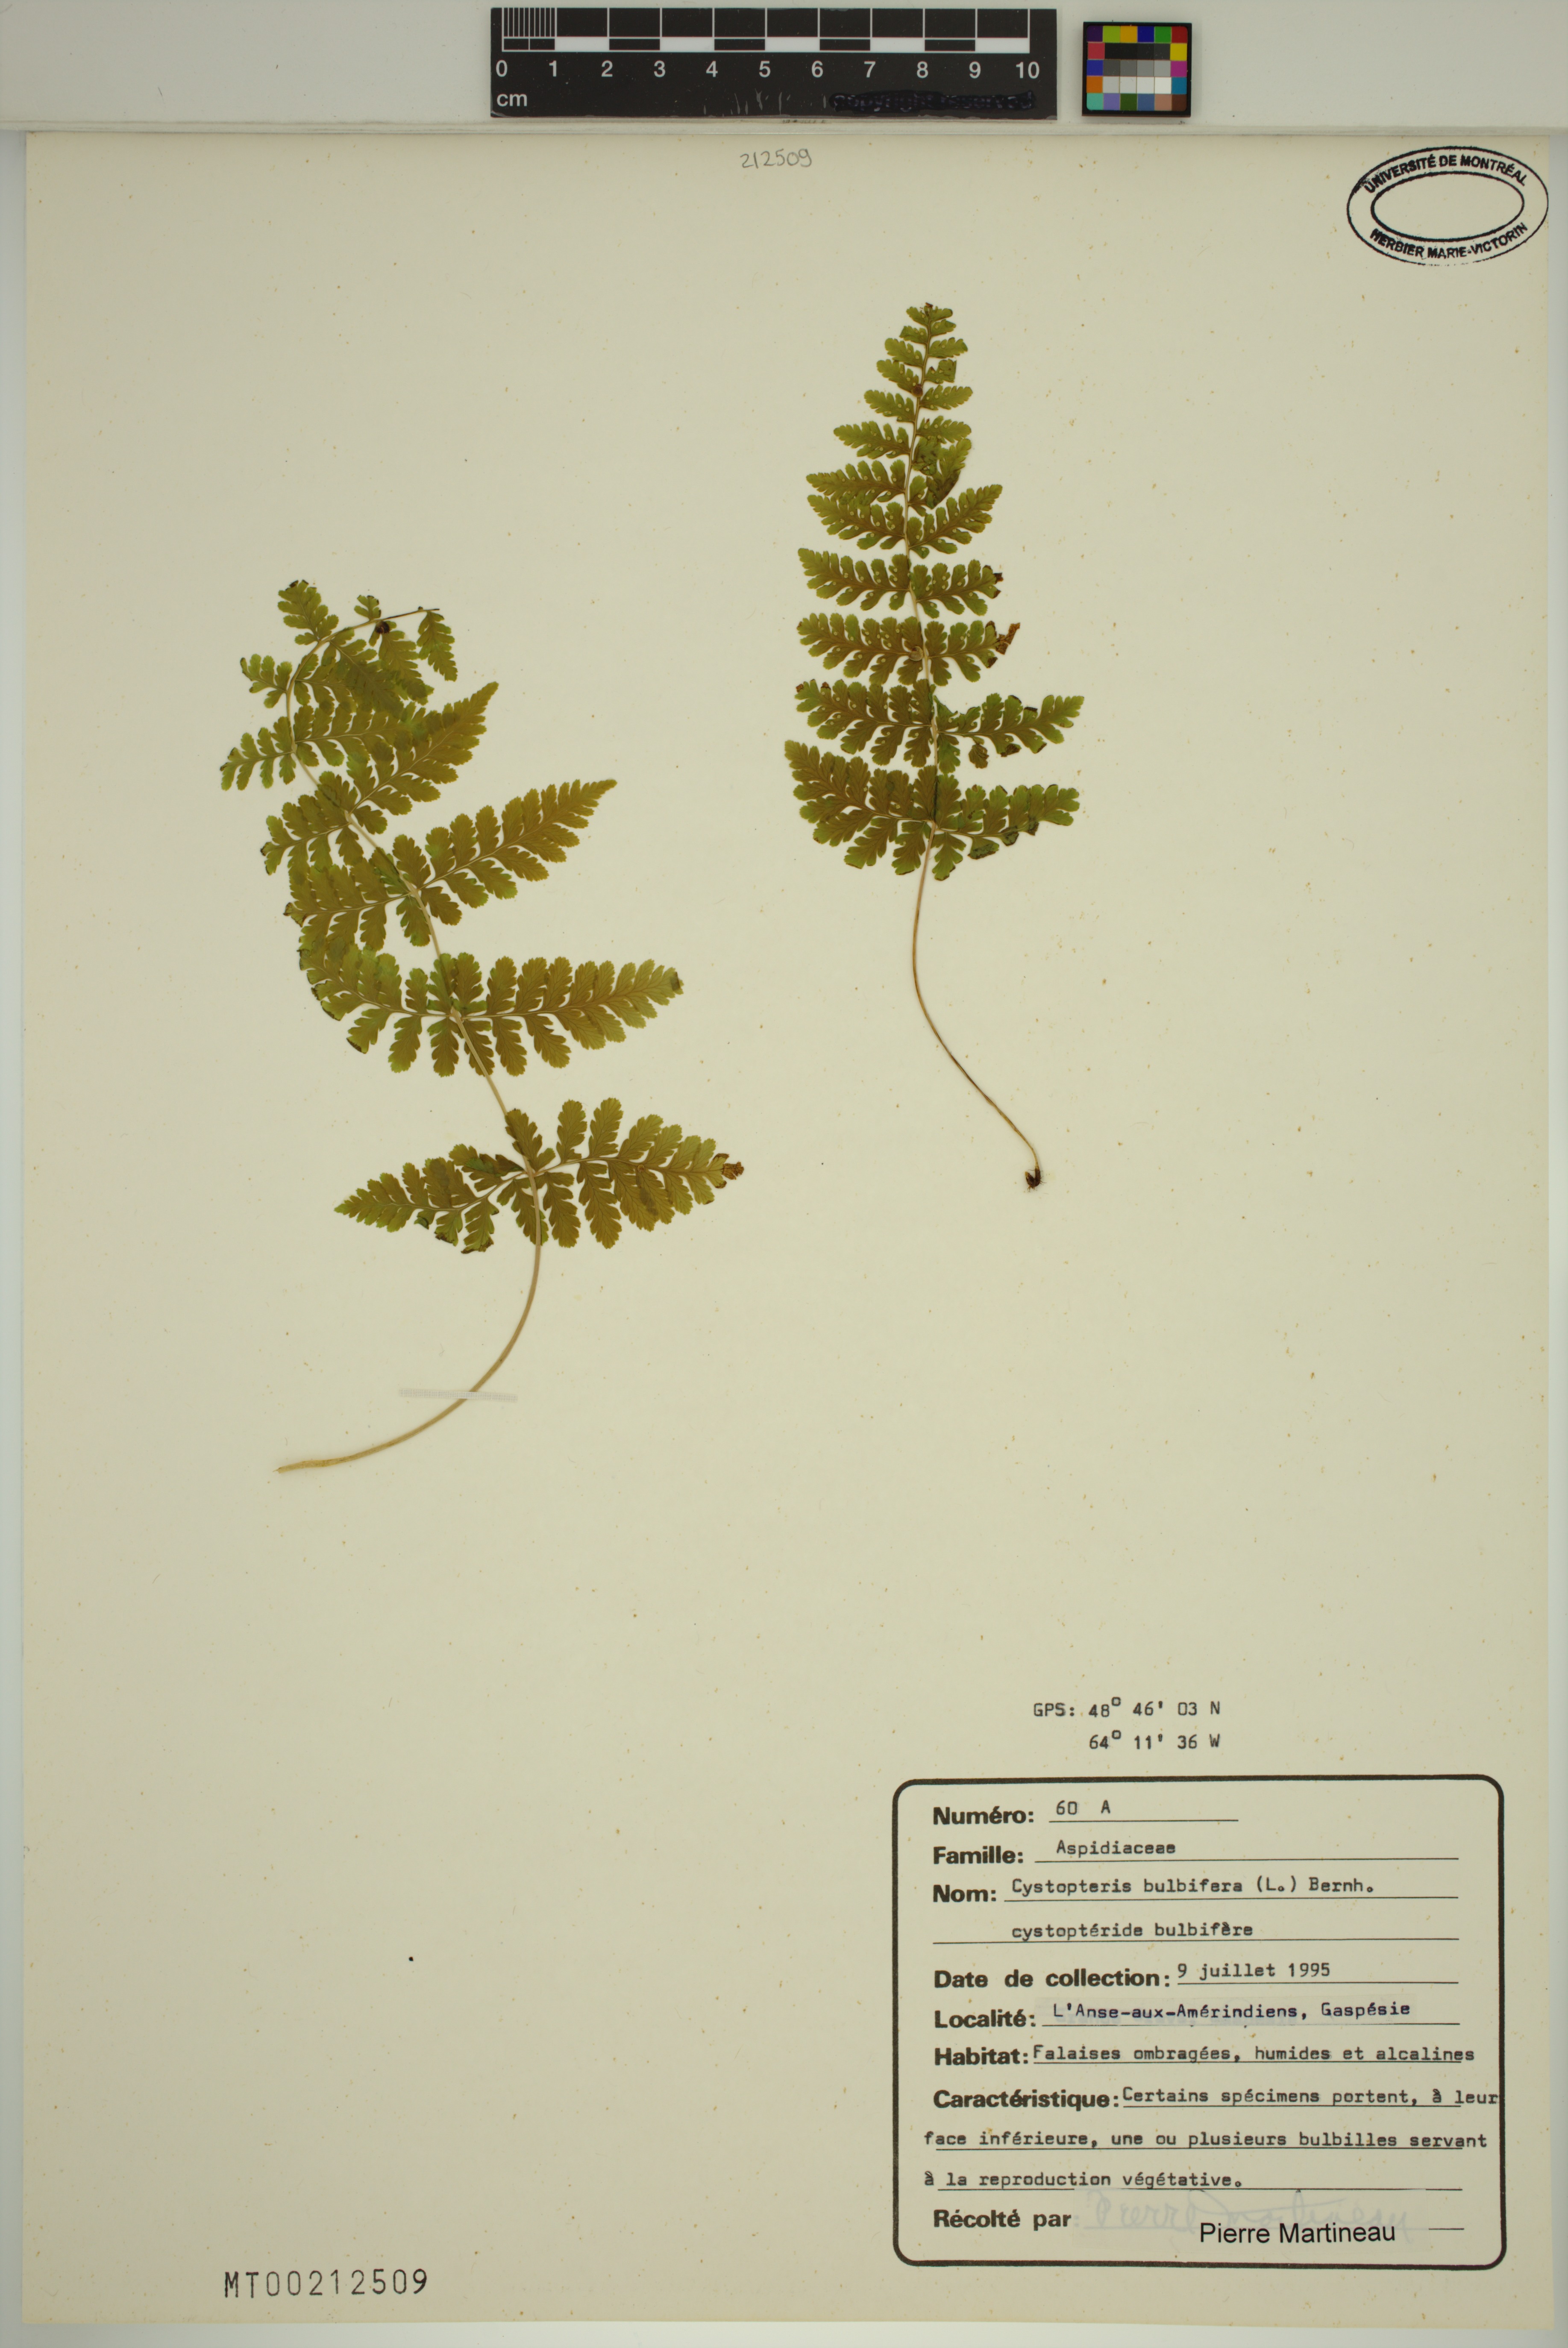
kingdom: Plantae
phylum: Tracheophyta
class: Polypodiopsida
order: Polypodiales
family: Cystopteridaceae
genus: Cystopteris
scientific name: Cystopteris bulbifera
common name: Bulblet bladder fern
